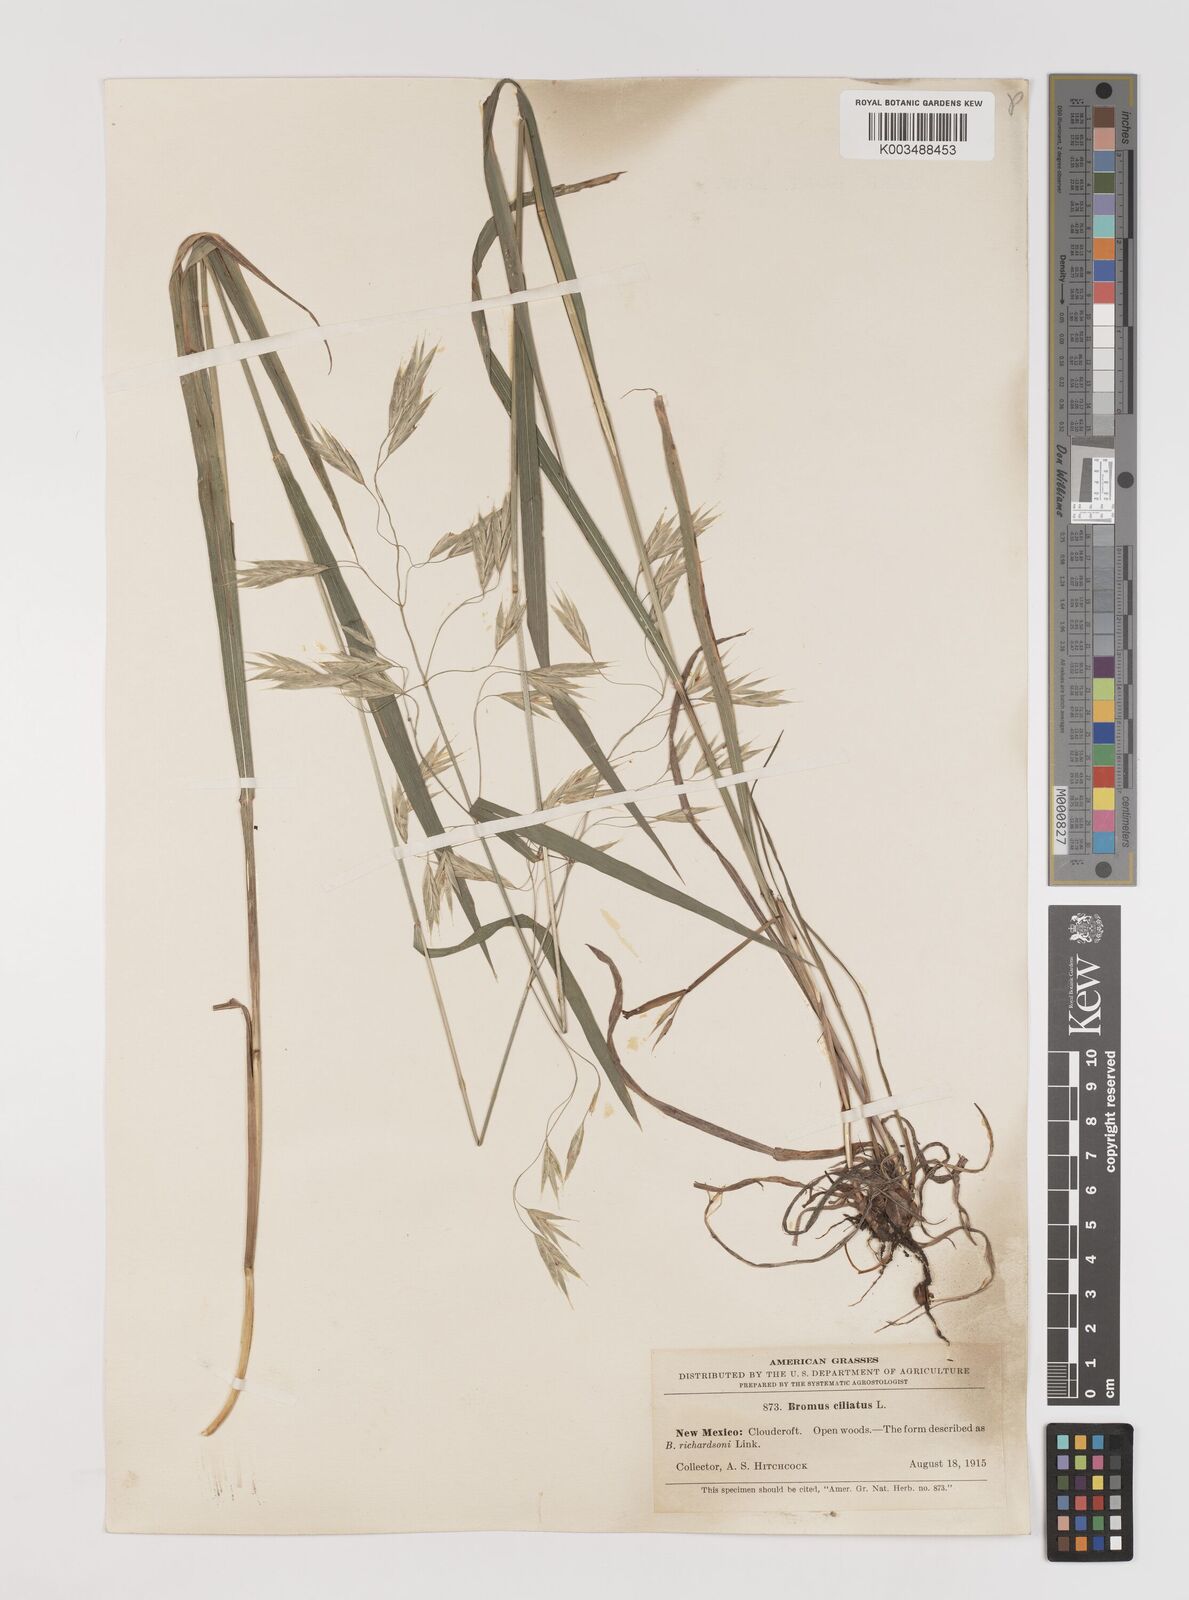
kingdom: Plantae
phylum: Tracheophyta
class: Liliopsida
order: Poales
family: Poaceae
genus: Bromus
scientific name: Bromus ciliatus
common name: Fringe brome
